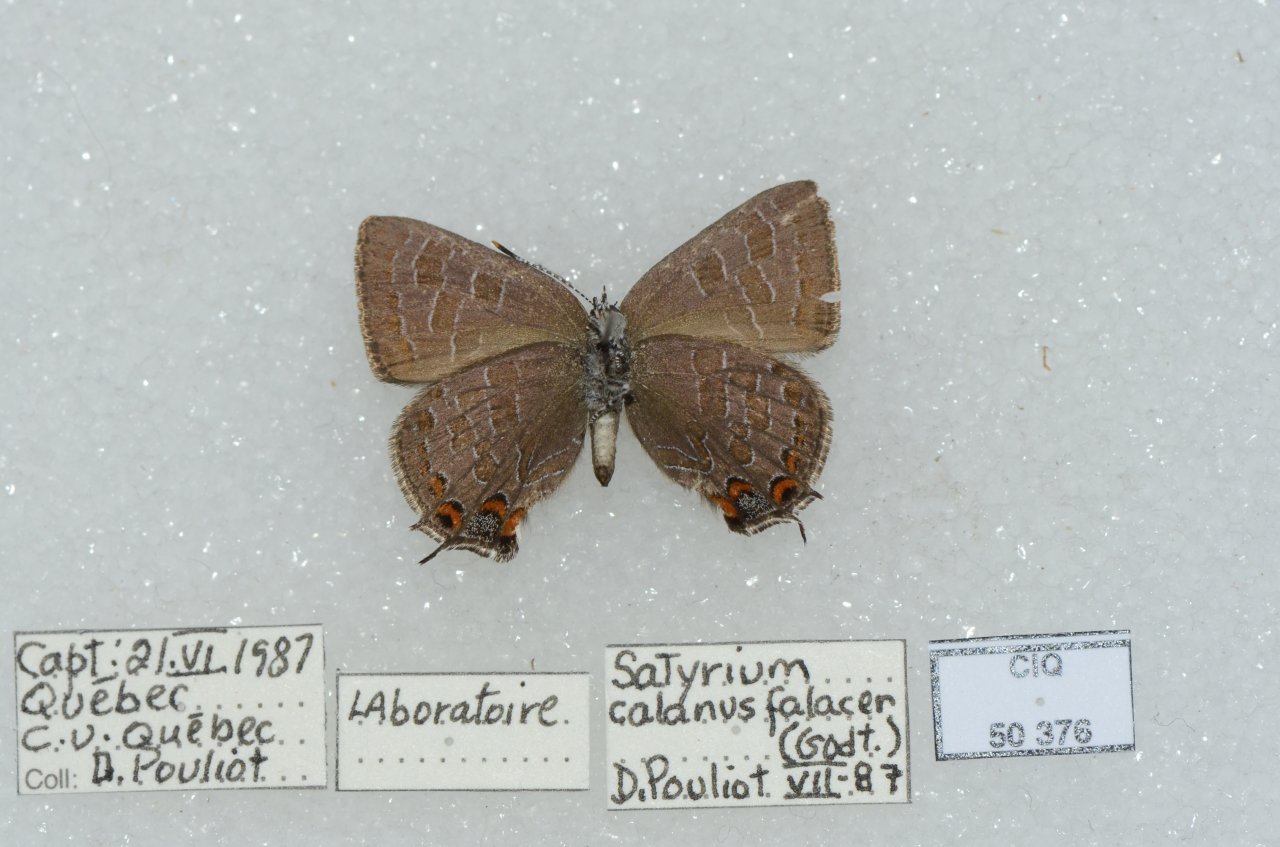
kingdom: Animalia
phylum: Arthropoda
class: Insecta
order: Lepidoptera
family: Lycaenidae
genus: Satyrium
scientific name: Satyrium liparops
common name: Striped Hairstreak
